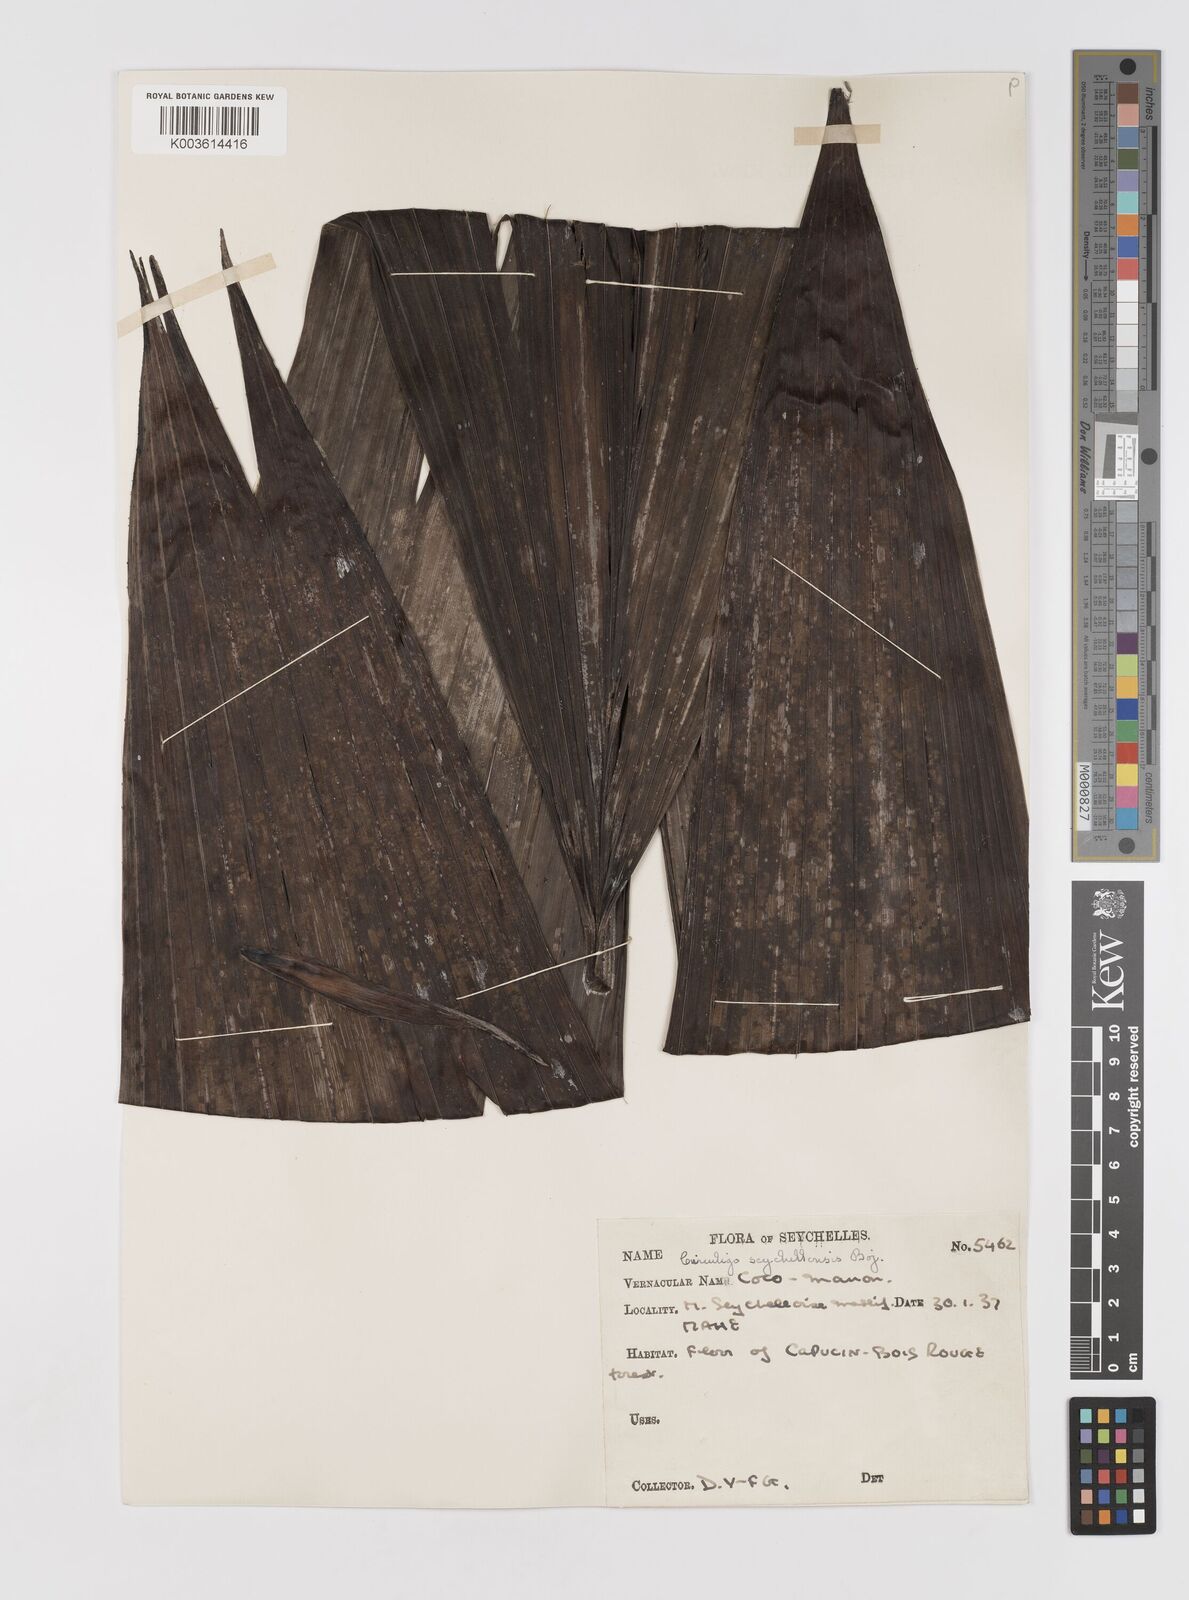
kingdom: Plantae
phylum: Tracheophyta
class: Liliopsida
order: Asparagales
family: Hypoxidaceae
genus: Curculigo
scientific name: Curculigo seychellensis
